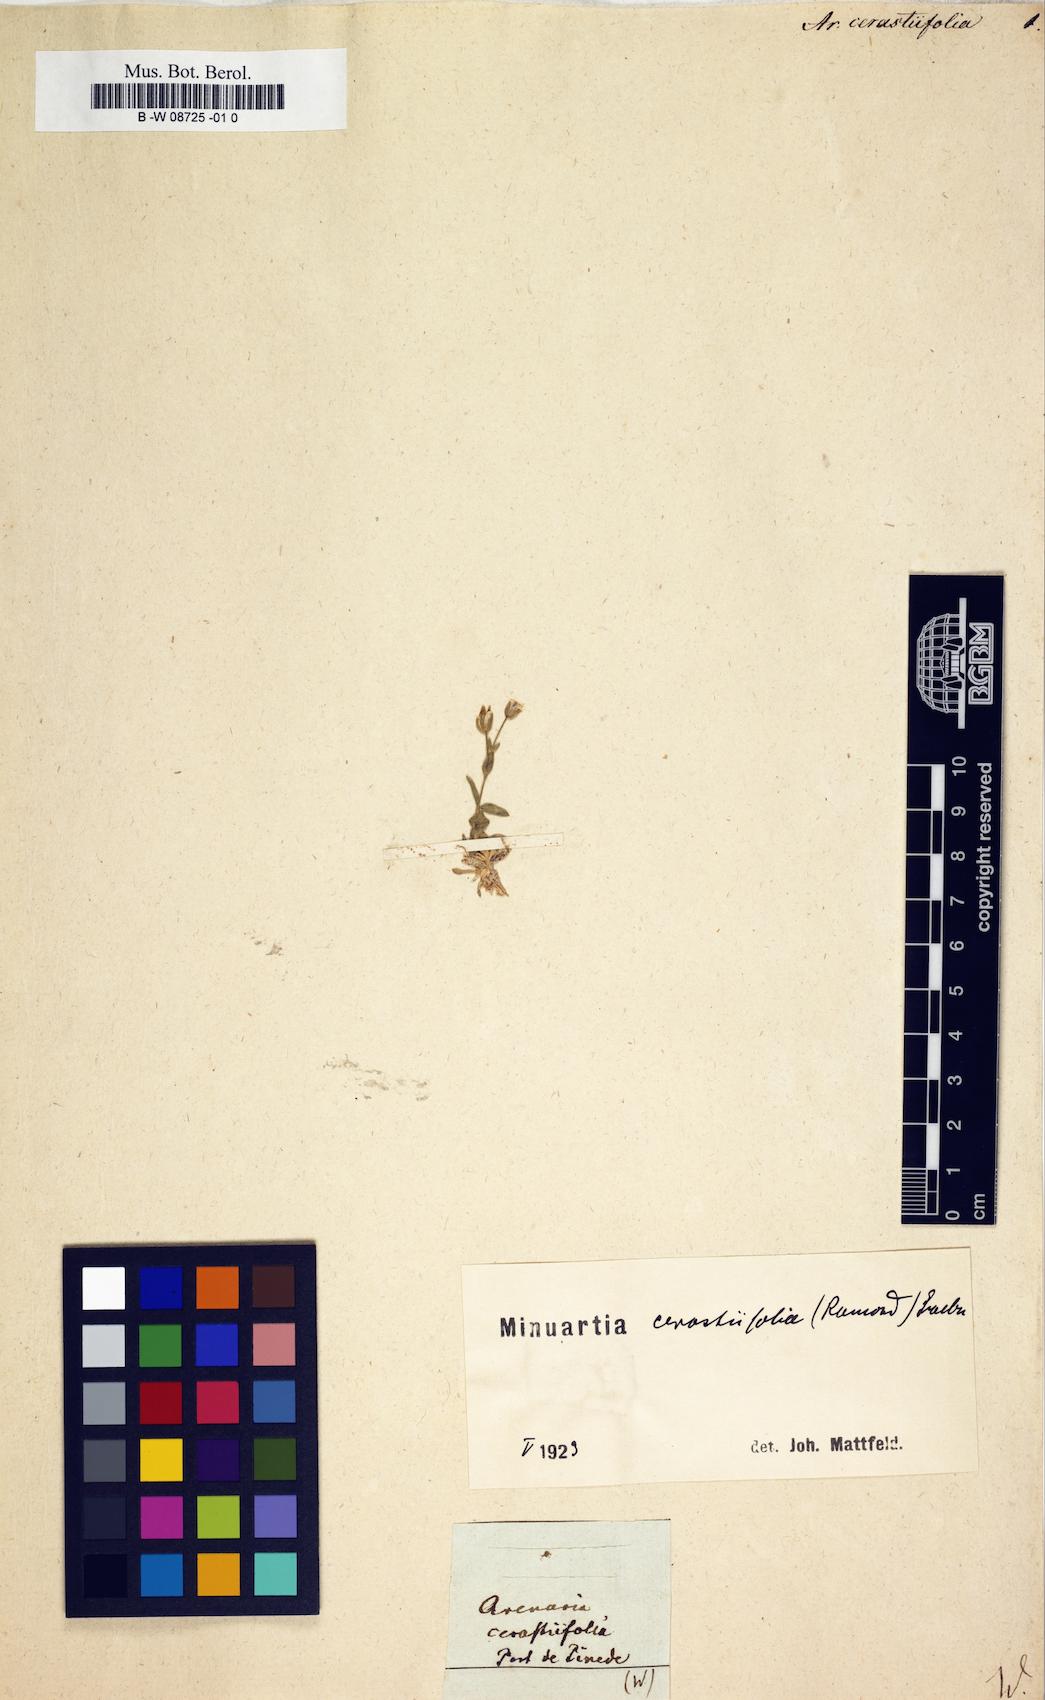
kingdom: Plantae
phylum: Tracheophyta
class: Magnoliopsida
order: Caryophyllales
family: Caryophyllaceae
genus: Facchinia
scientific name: Facchinia cerastiifolia
